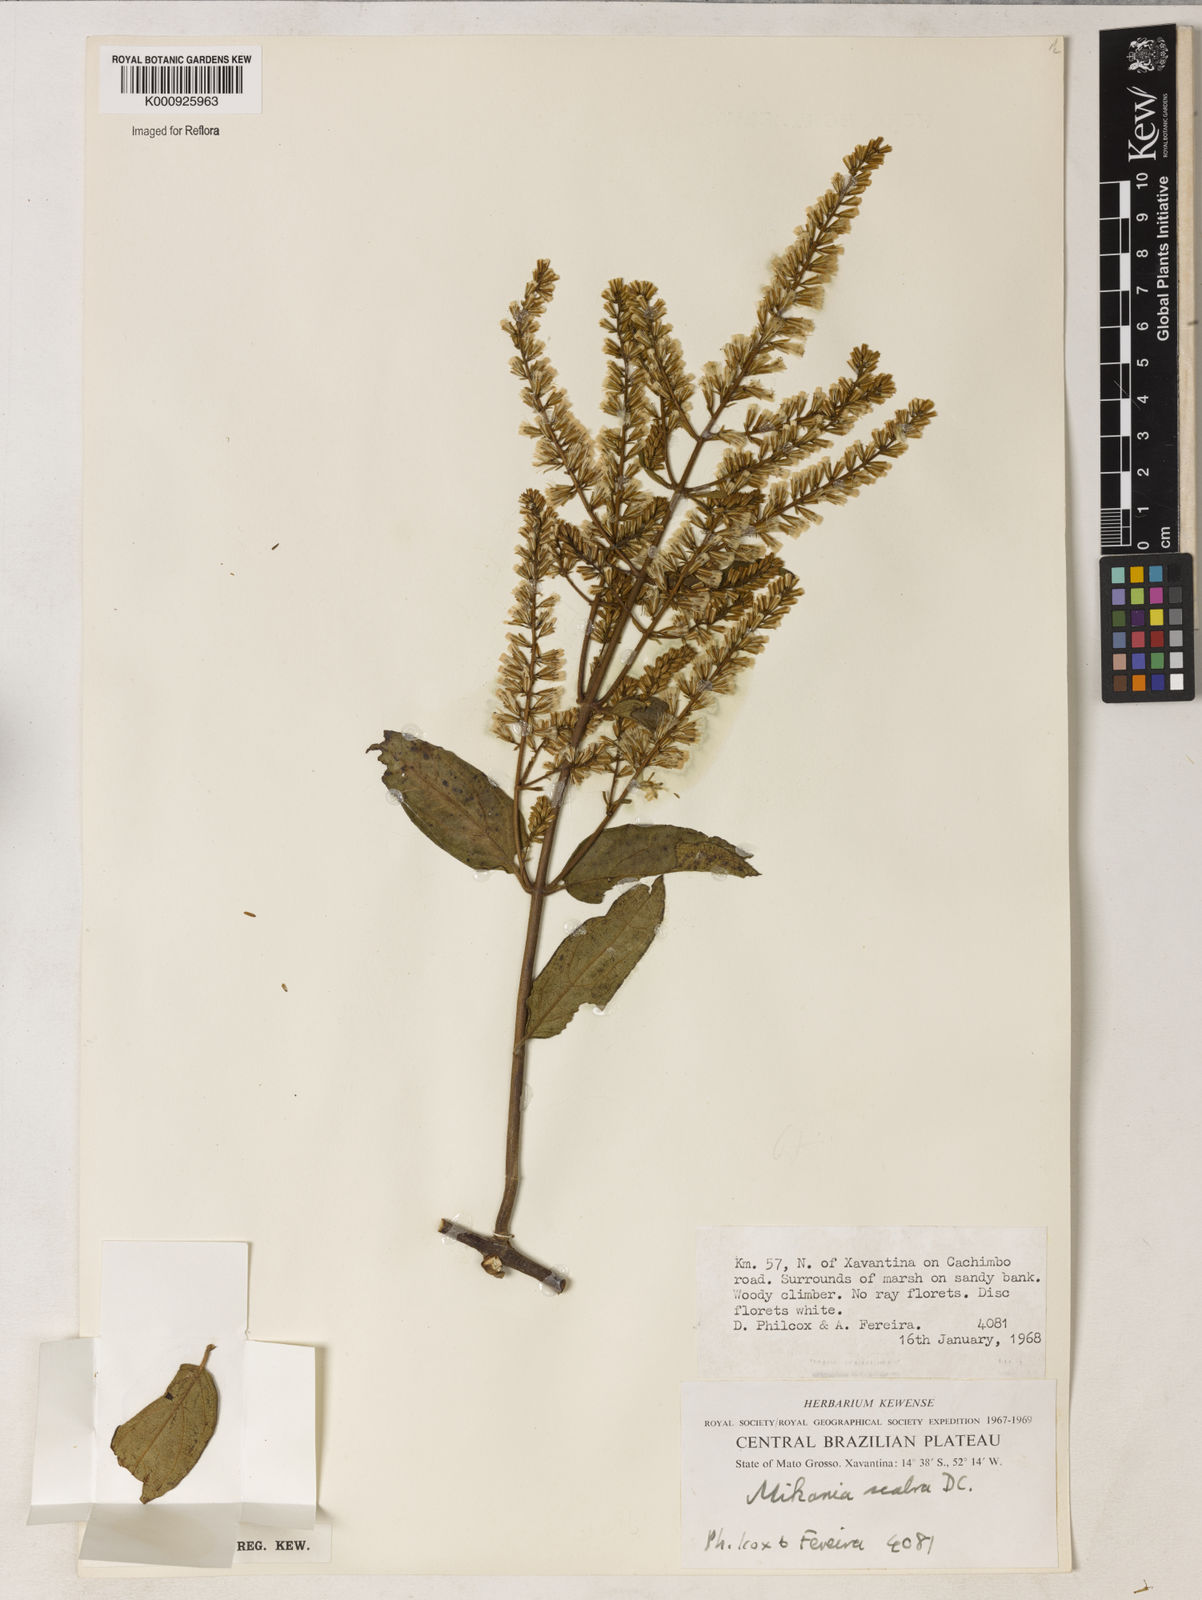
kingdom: Plantae
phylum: Tracheophyta
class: Magnoliopsida
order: Asterales
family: Asteraceae
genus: Mikania
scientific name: Mikania psilostachya
